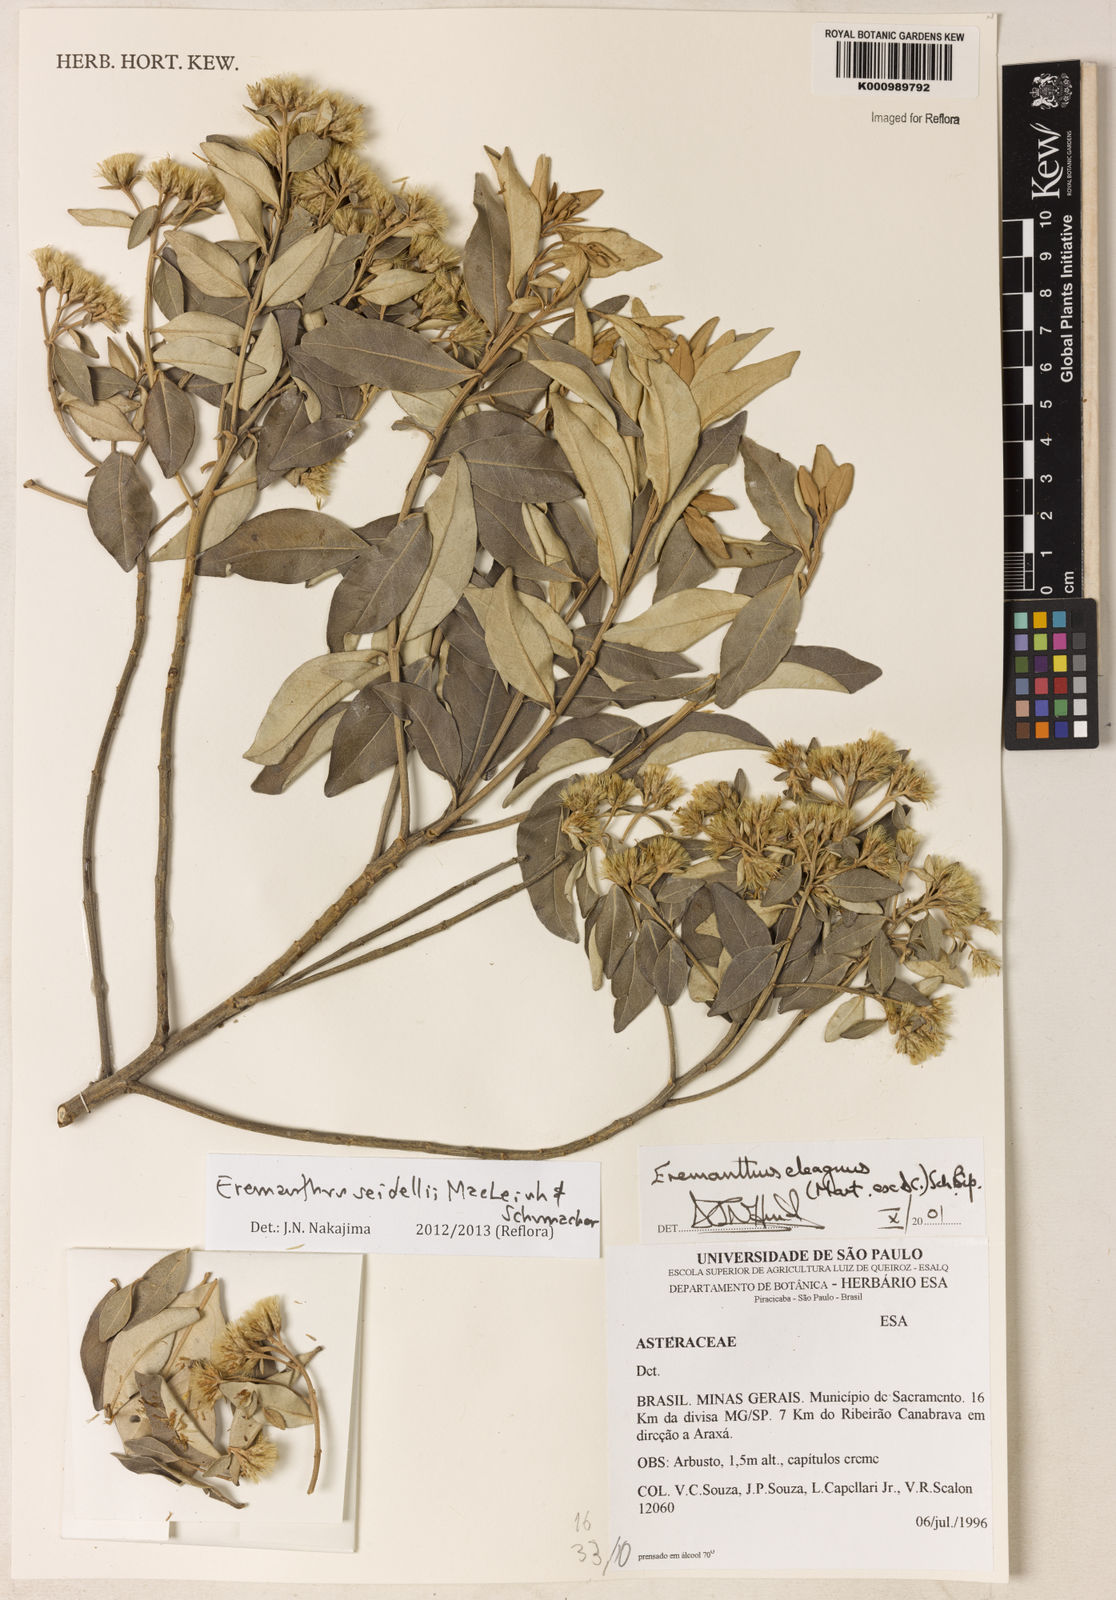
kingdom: Plantae
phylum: Tracheophyta
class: Magnoliopsida
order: Asterales
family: Asteraceae
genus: Eremanthus
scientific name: Eremanthus elaeagnus
